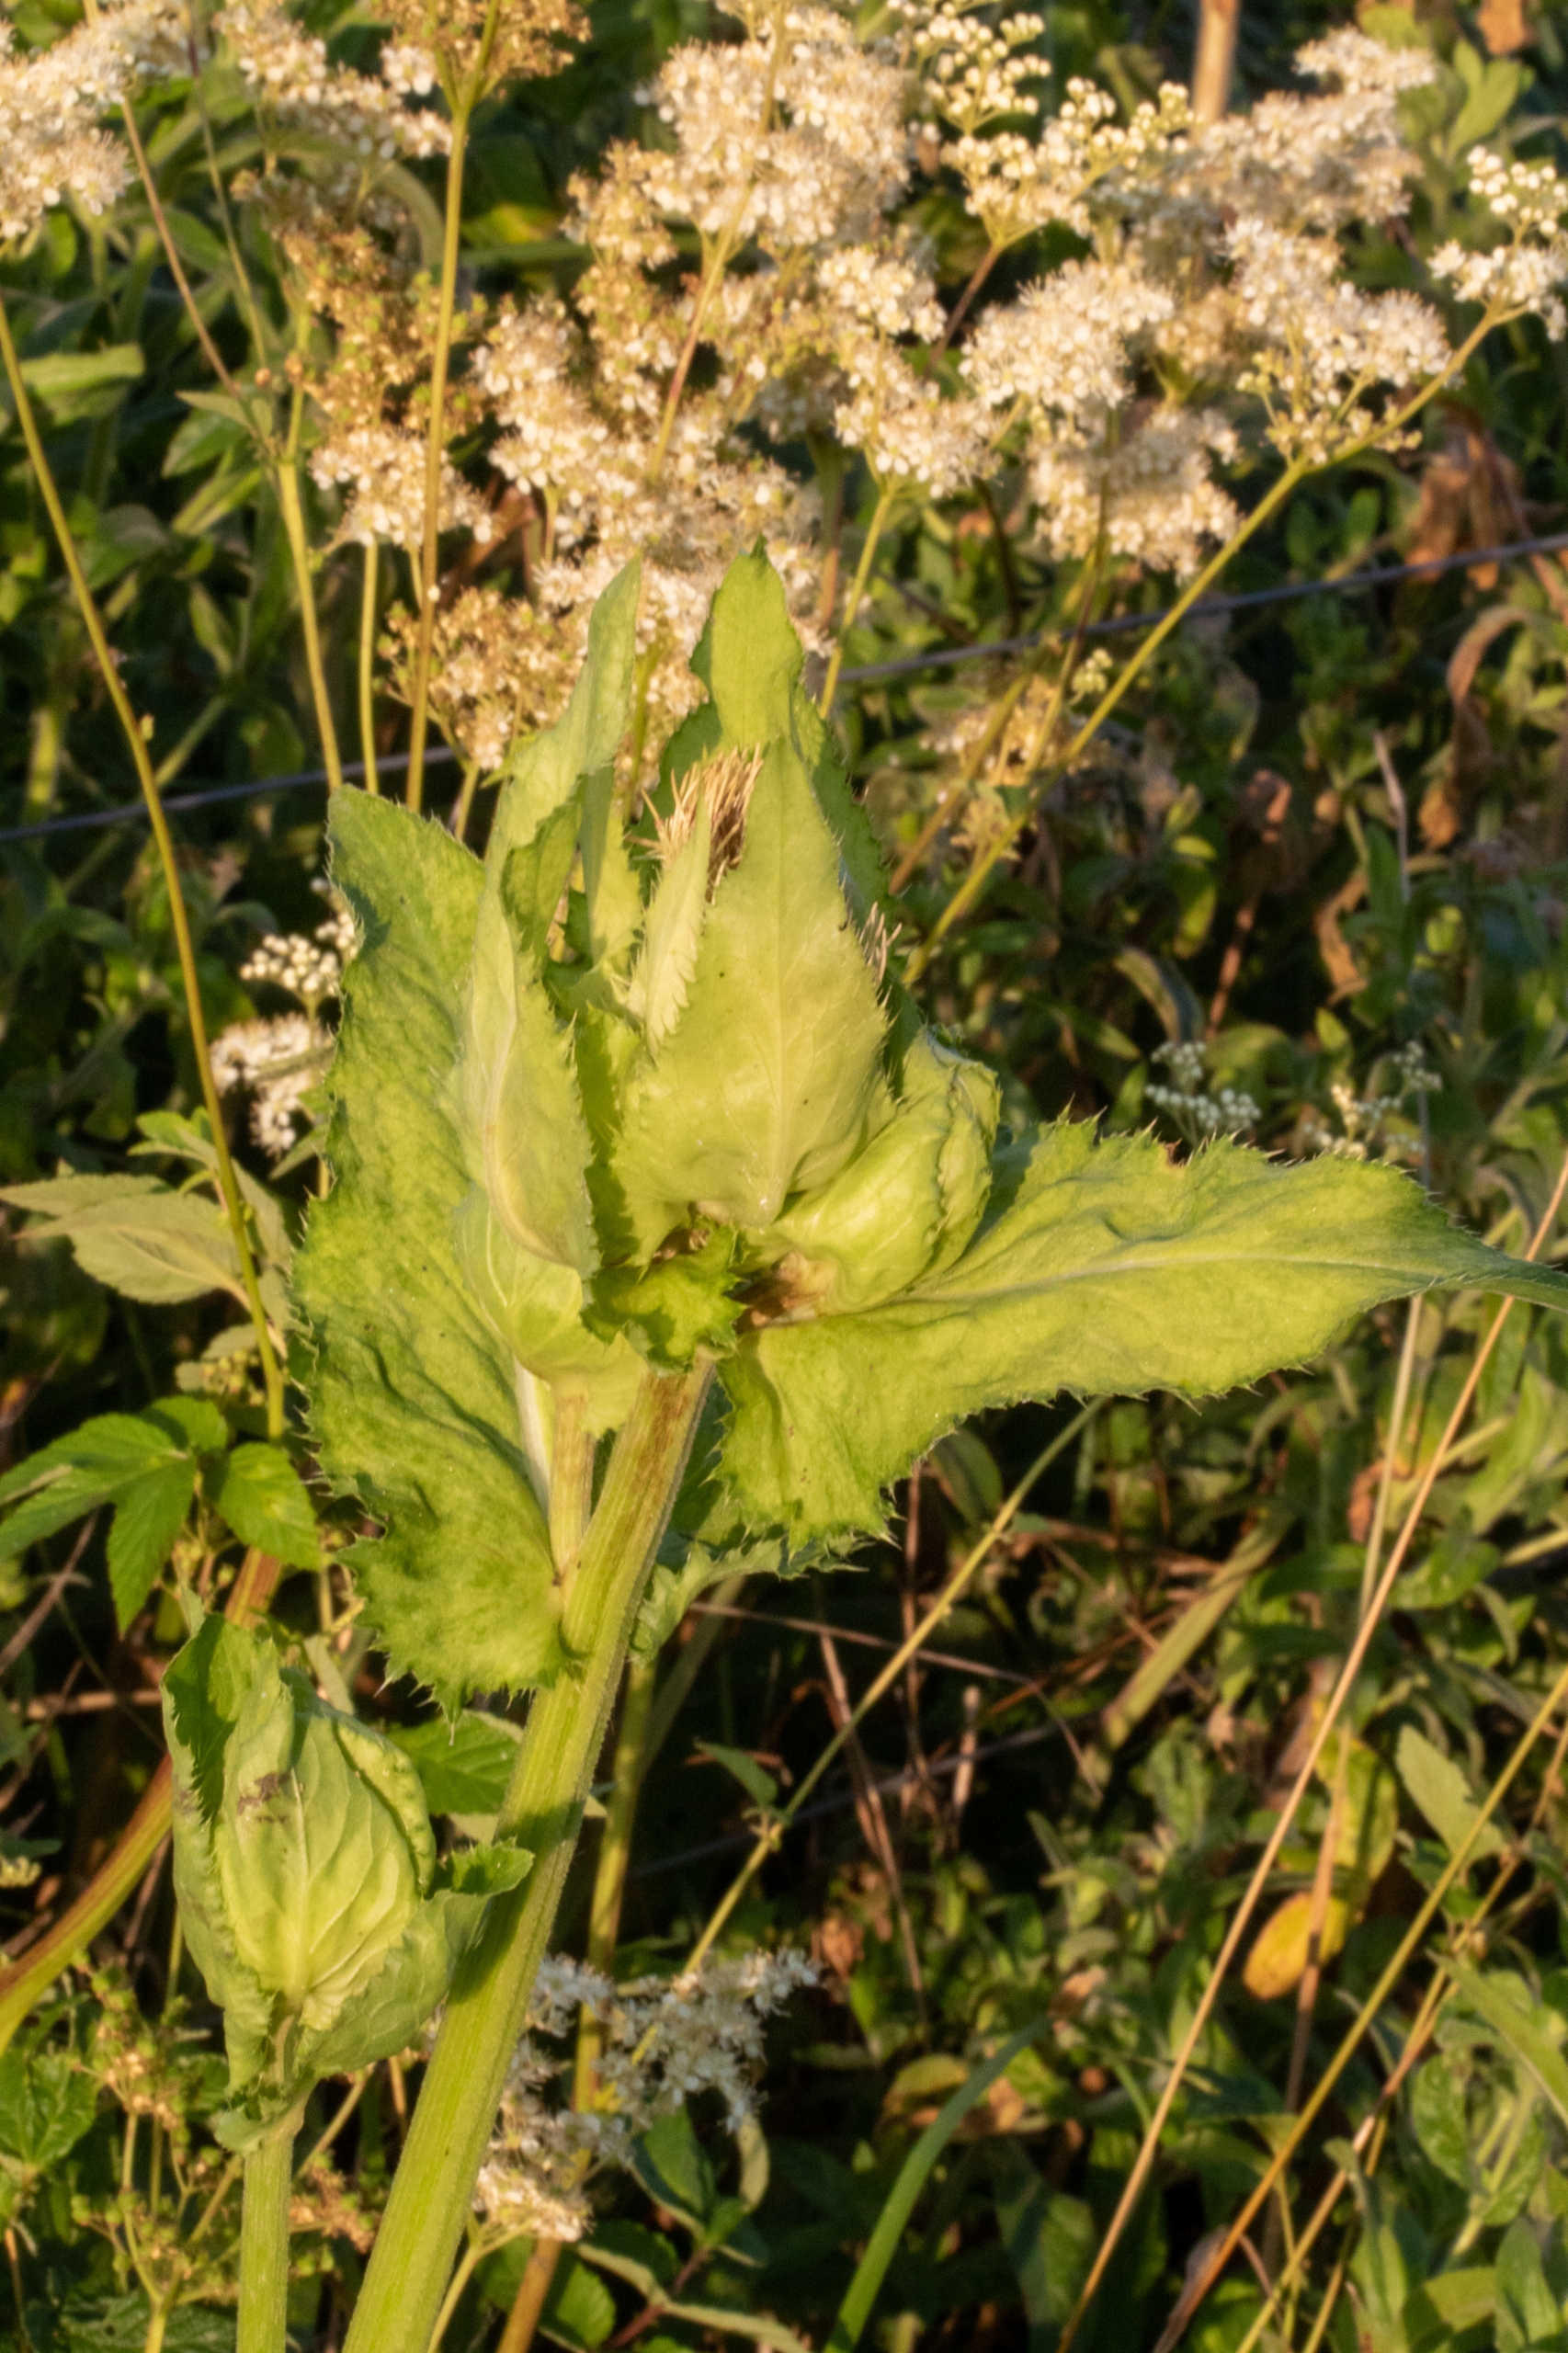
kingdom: Plantae
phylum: Tracheophyta
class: Magnoliopsida
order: Asterales
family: Asteraceae
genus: Cirsium
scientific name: Cirsium oleraceum
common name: Kål-tidsel
